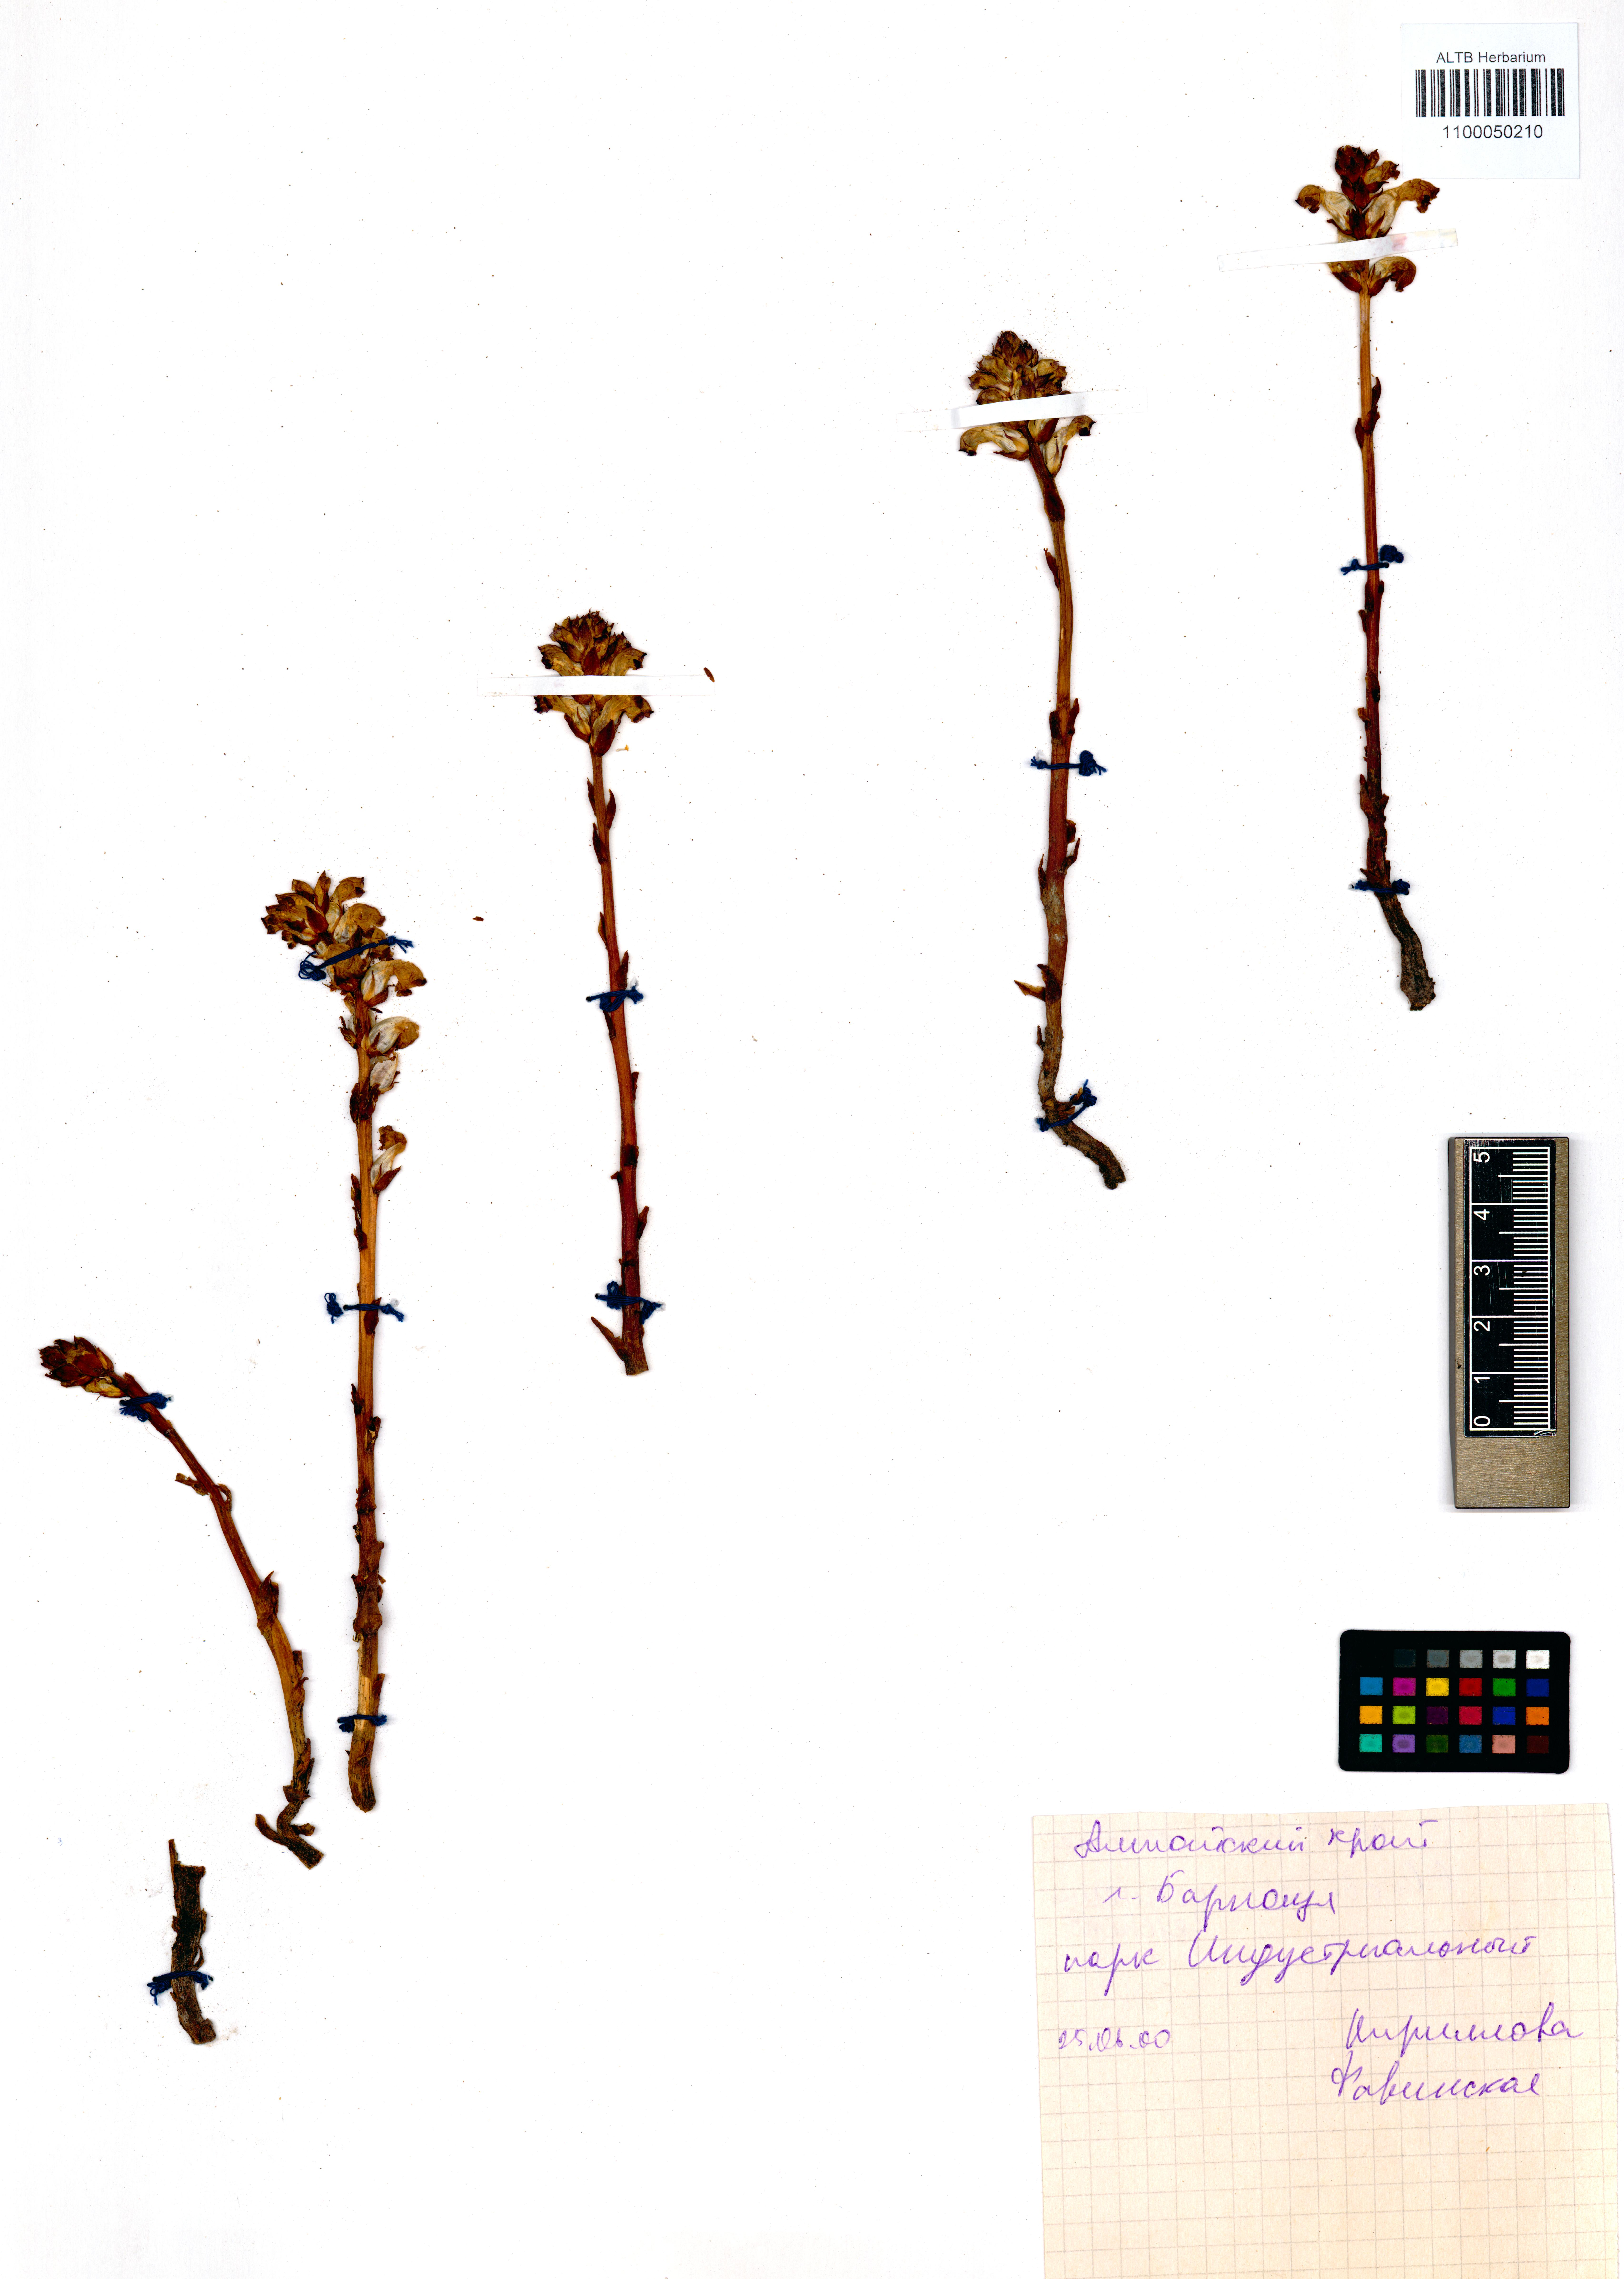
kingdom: Plantae
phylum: Tracheophyta
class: Magnoliopsida
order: Lamiales
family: Orobanchaceae
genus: Orobanche
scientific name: Orobanche cernua
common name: Australian broomrape
